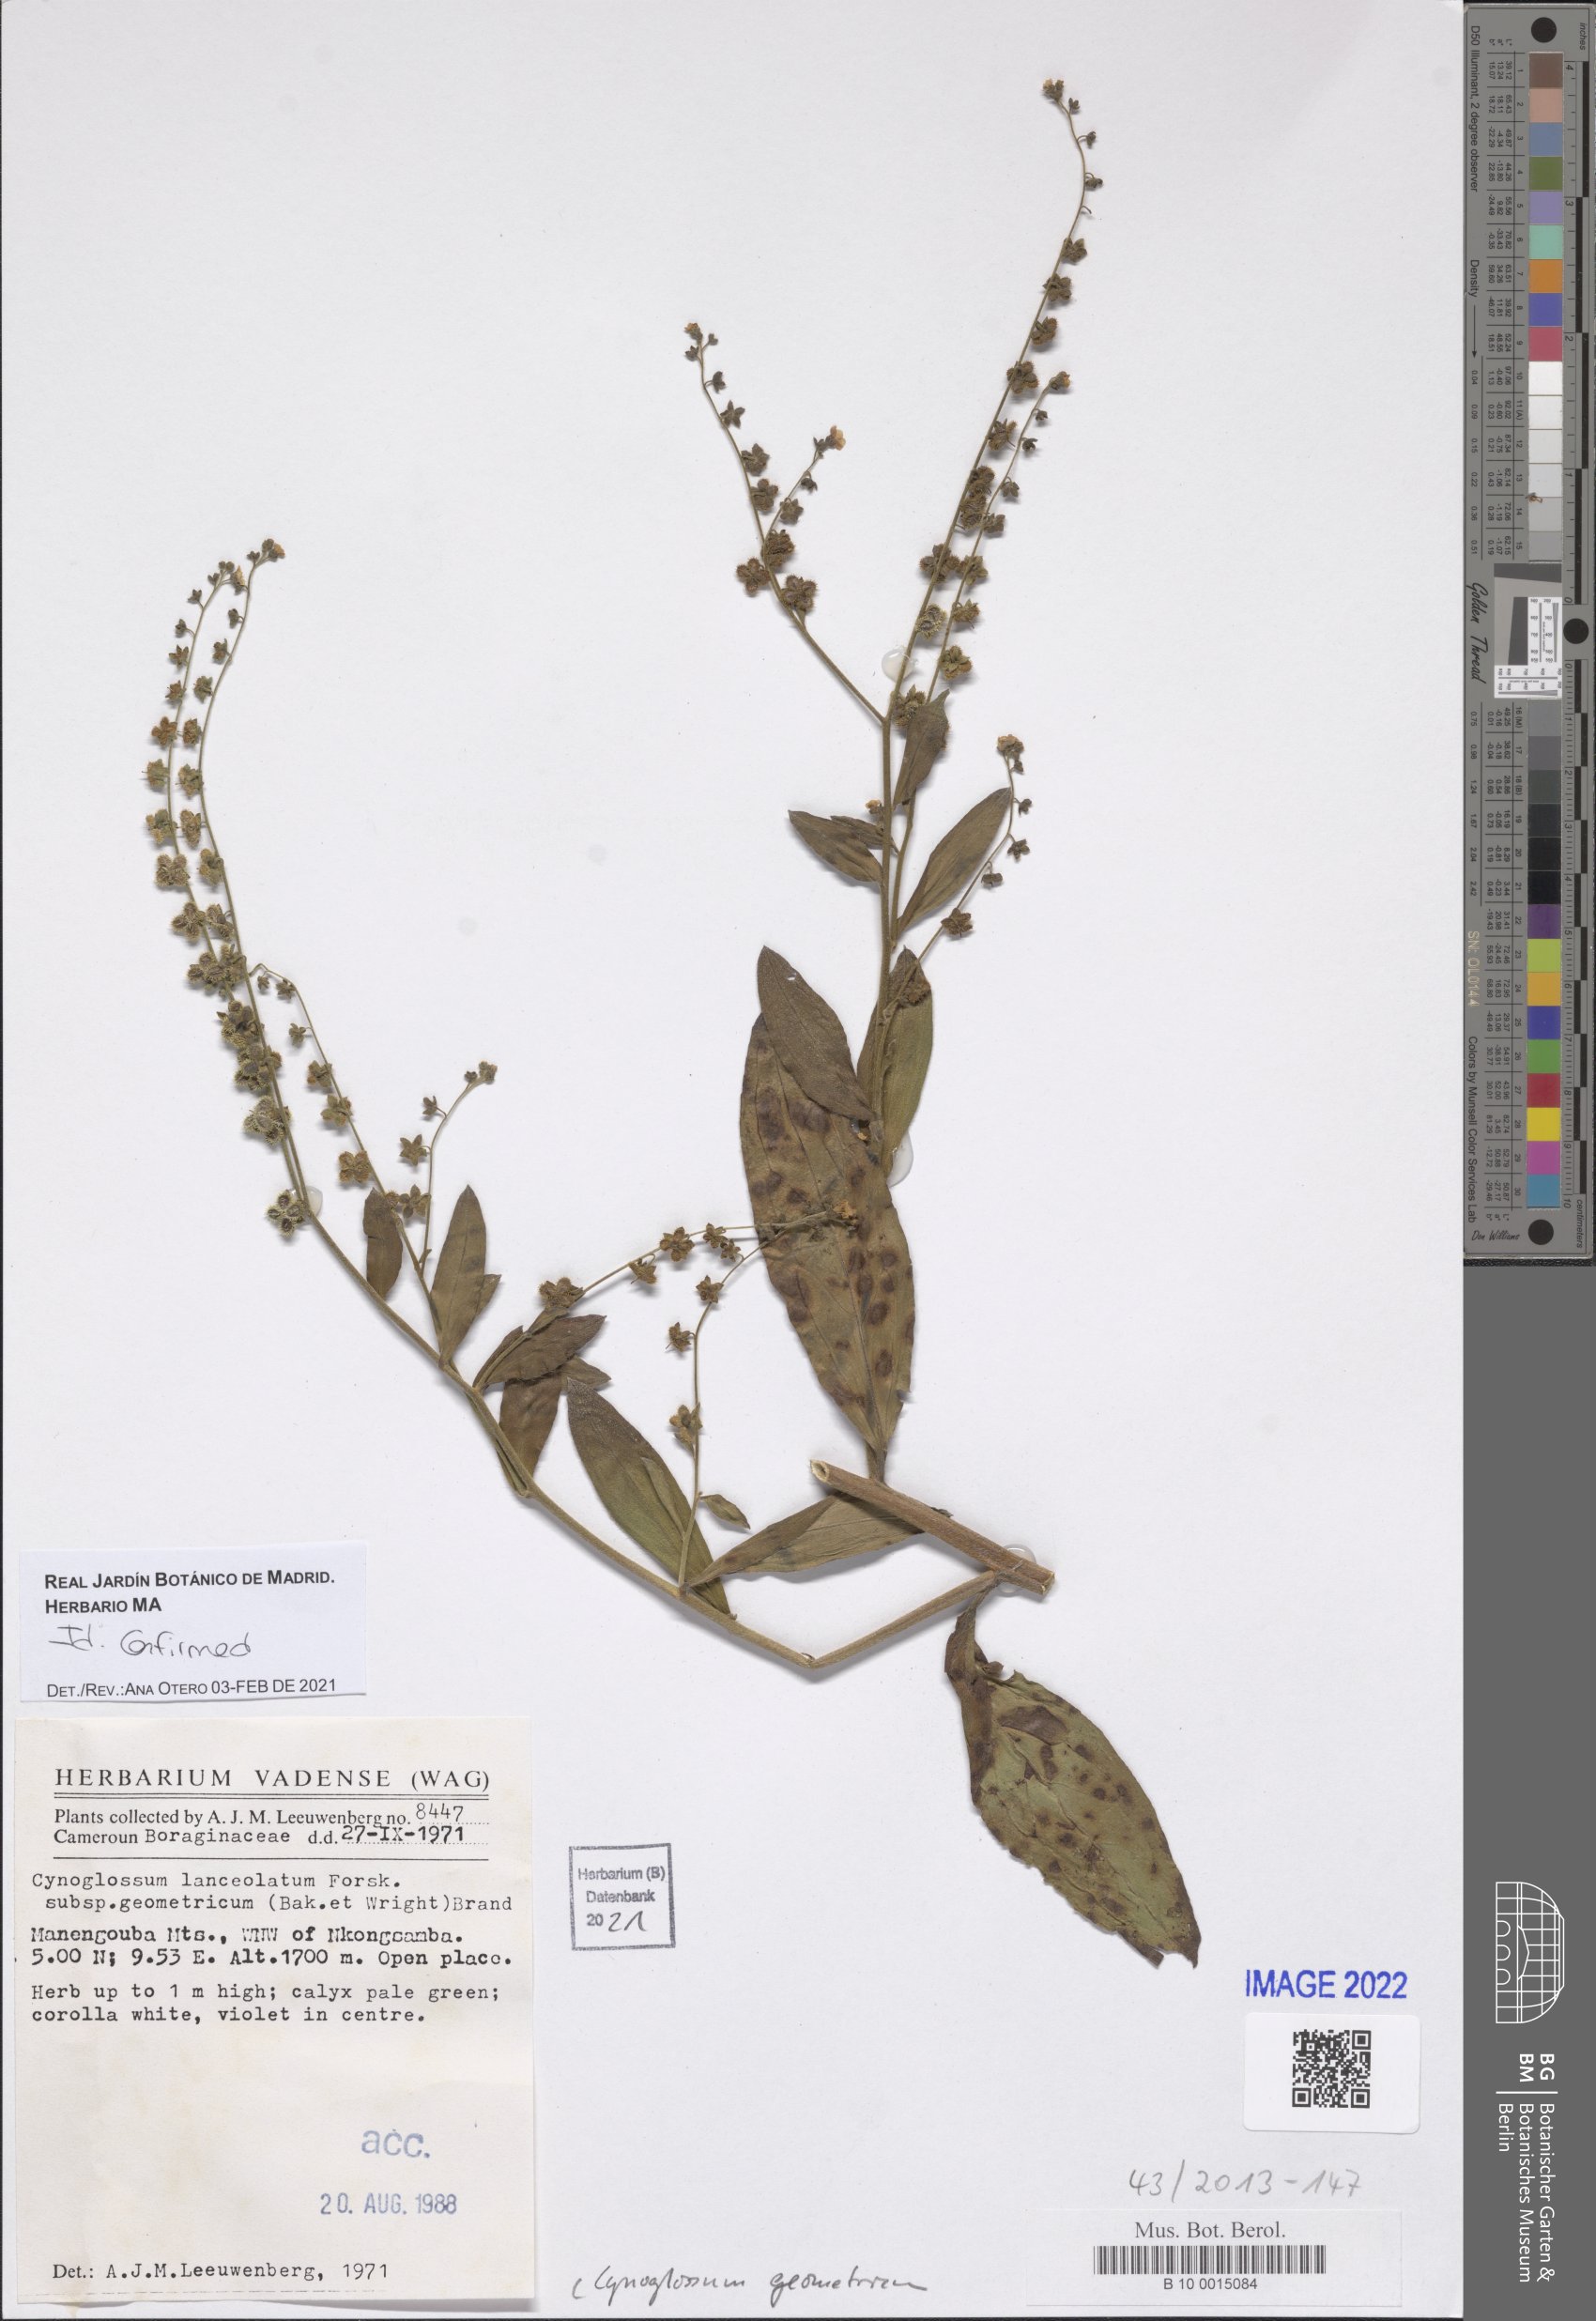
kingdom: Plantae
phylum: Tracheophyta
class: Magnoliopsida
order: Boraginales
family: Boraginaceae
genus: Paracynoglossum
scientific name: Paracynoglossum geometricum
